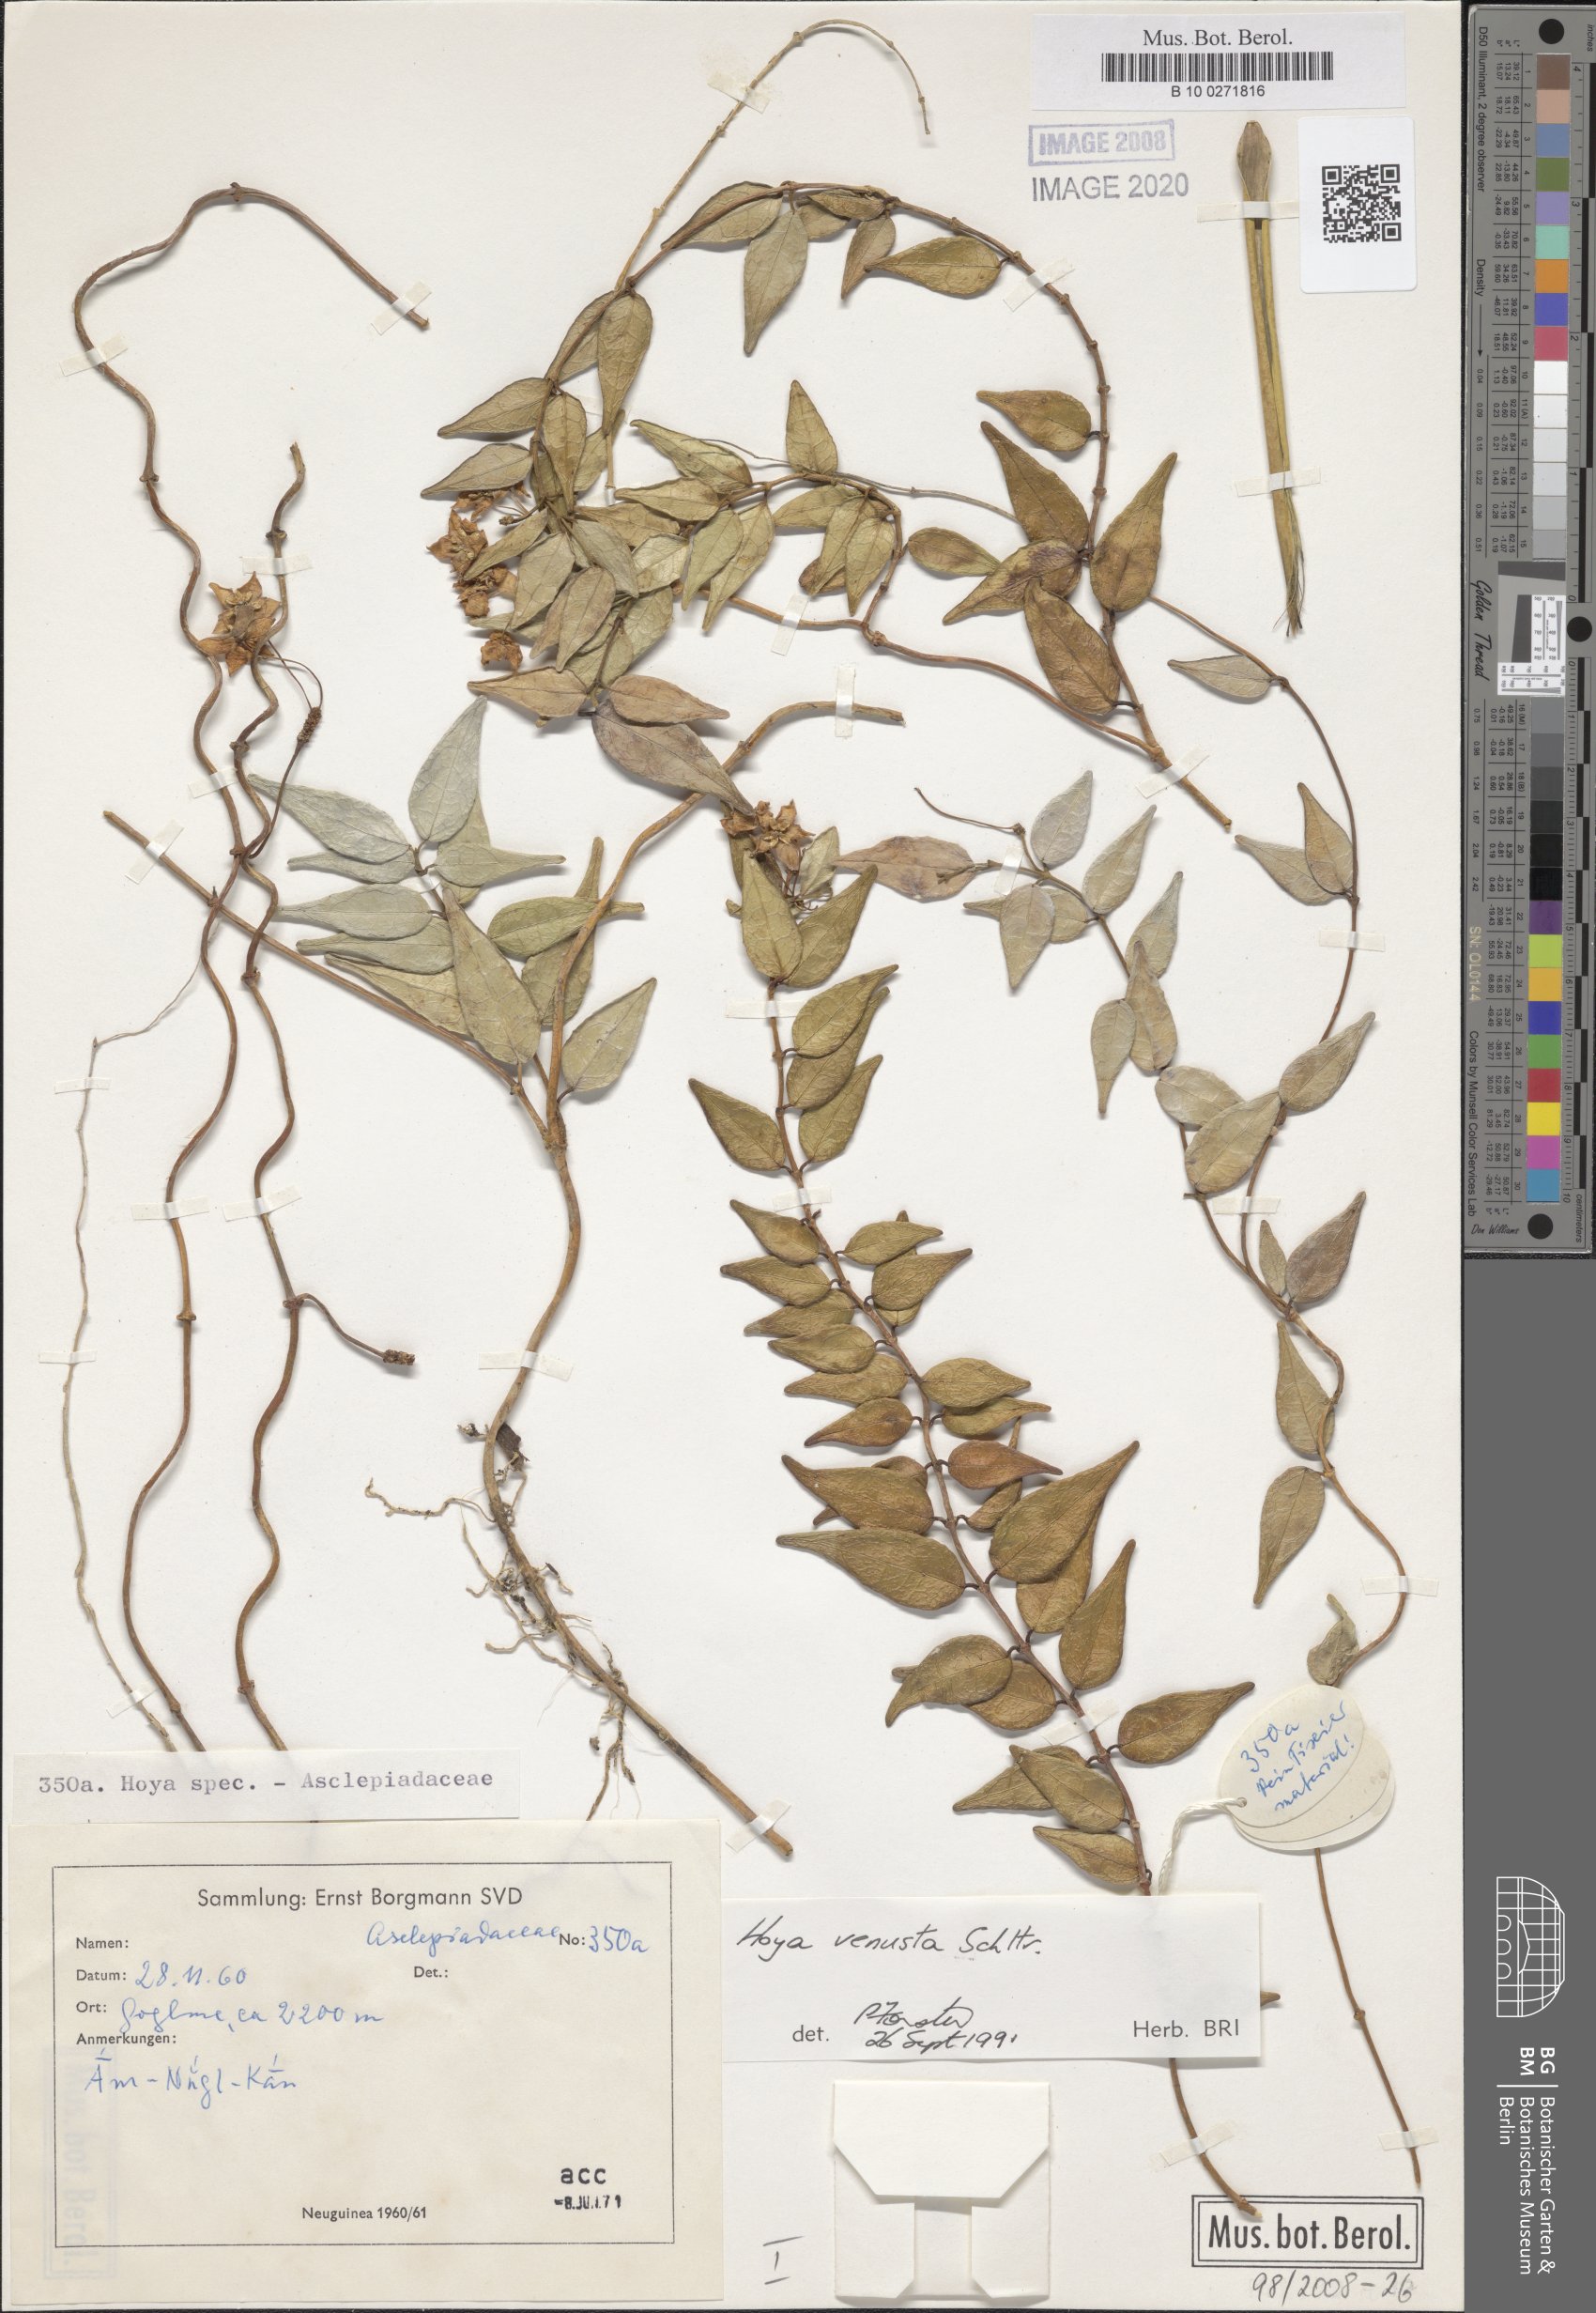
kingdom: Plantae
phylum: Tracheophyta
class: Magnoliopsida
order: Gentianales
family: Apocynaceae
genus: Hoya
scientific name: Hoya venusta
